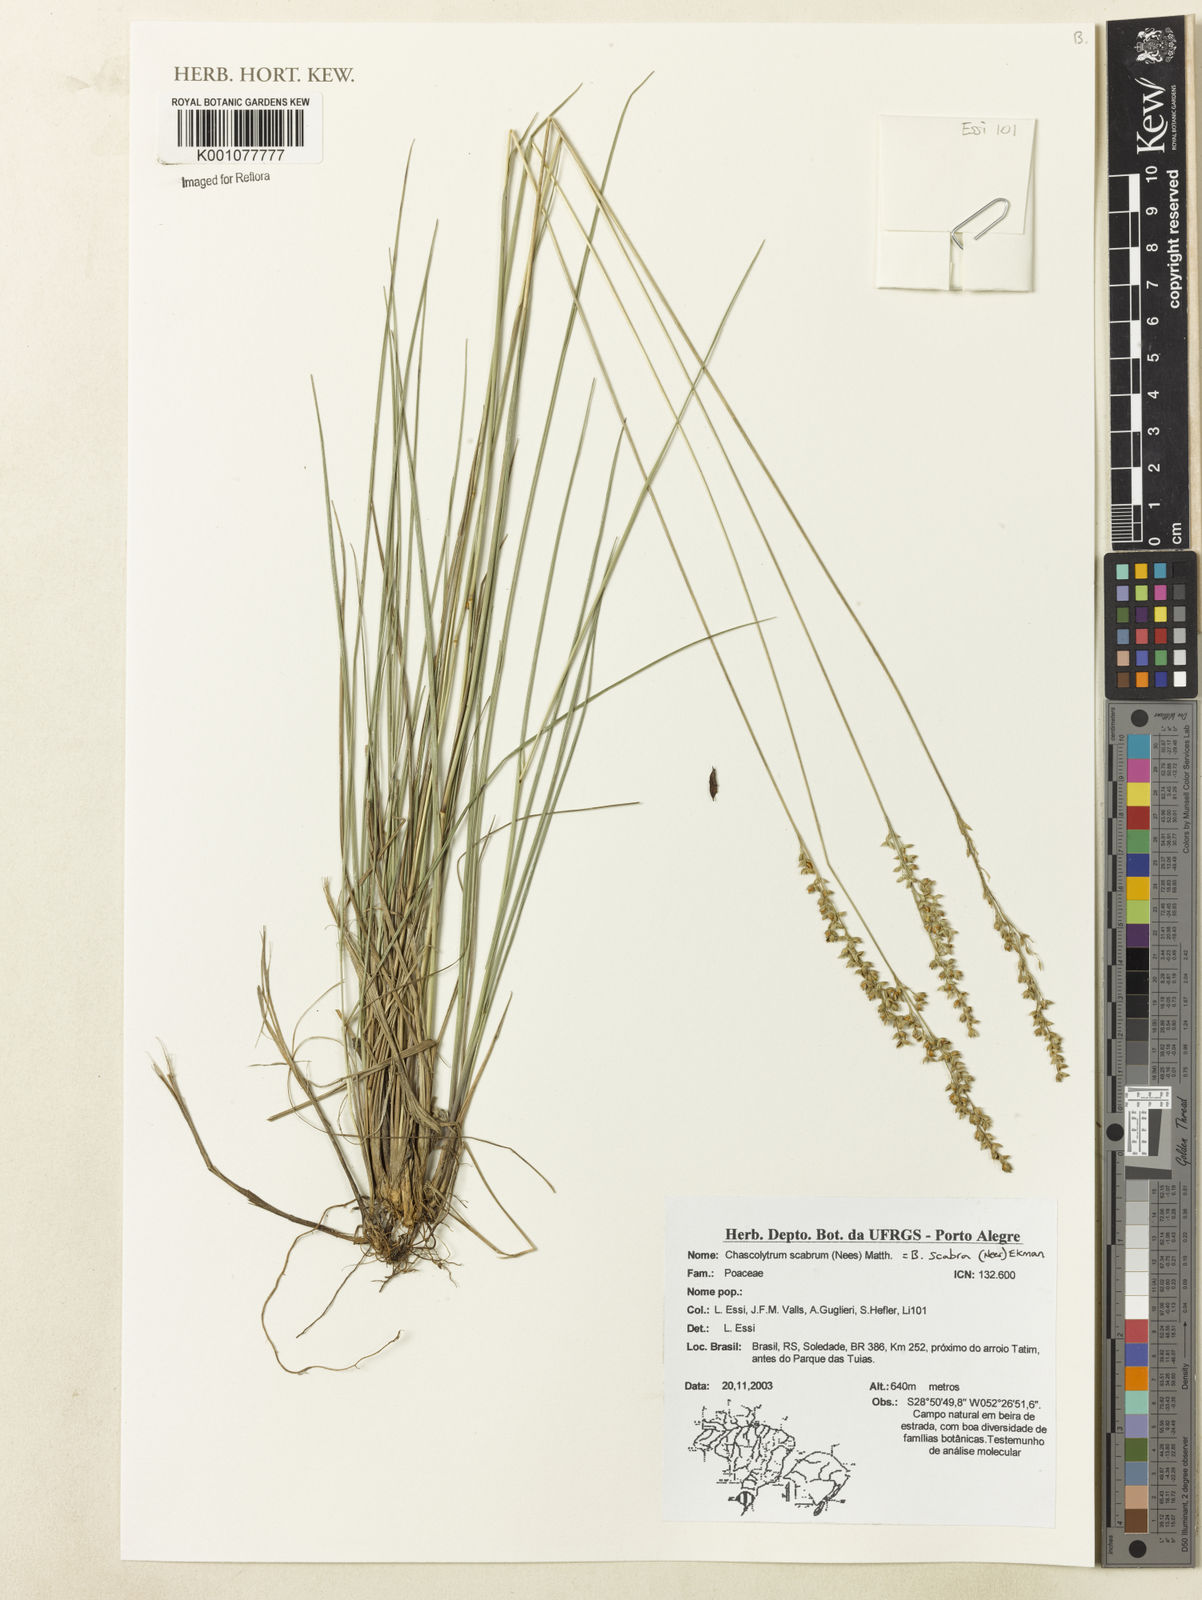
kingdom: Plantae
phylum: Tracheophyta
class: Liliopsida
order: Poales
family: Poaceae
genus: Chascolytrum
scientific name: Chascolytrum scabrum
